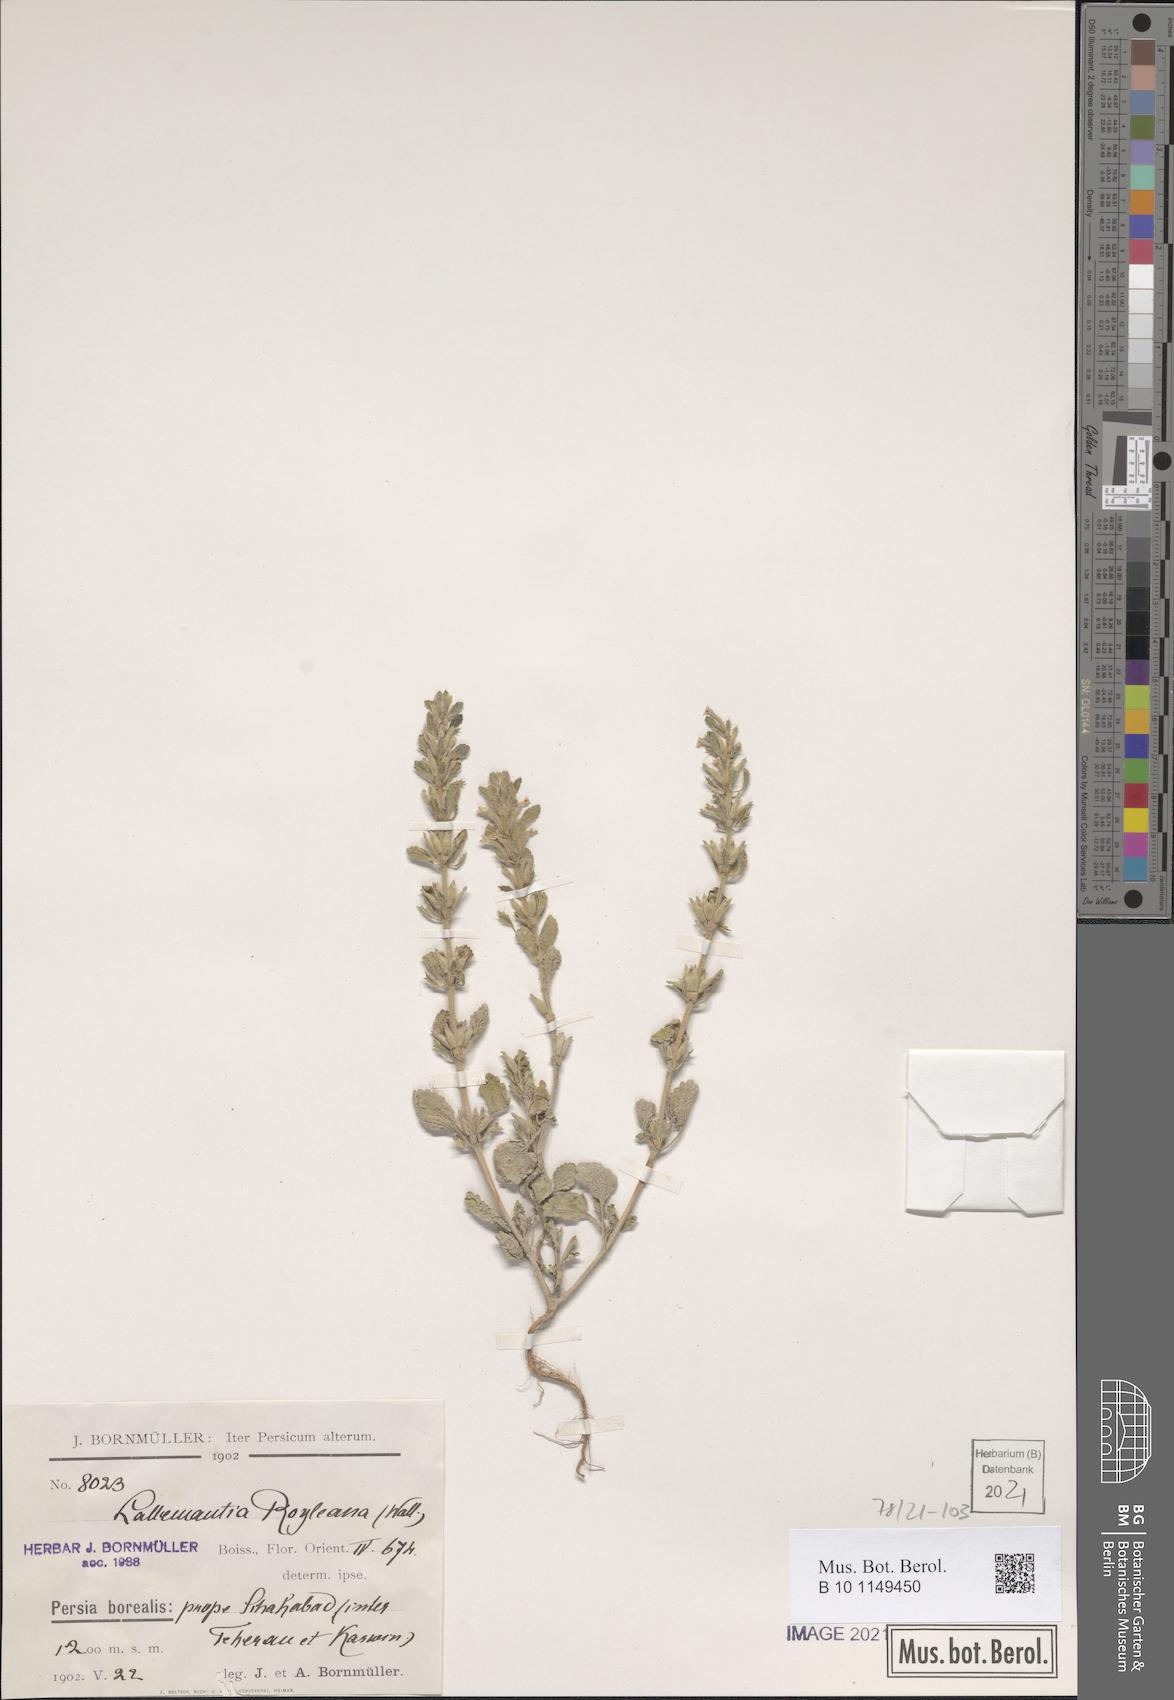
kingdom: Plantae
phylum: Tracheophyta
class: Magnoliopsida
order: Lamiales
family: Lamiaceae
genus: Lallemantia
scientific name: Lallemantia royleana
